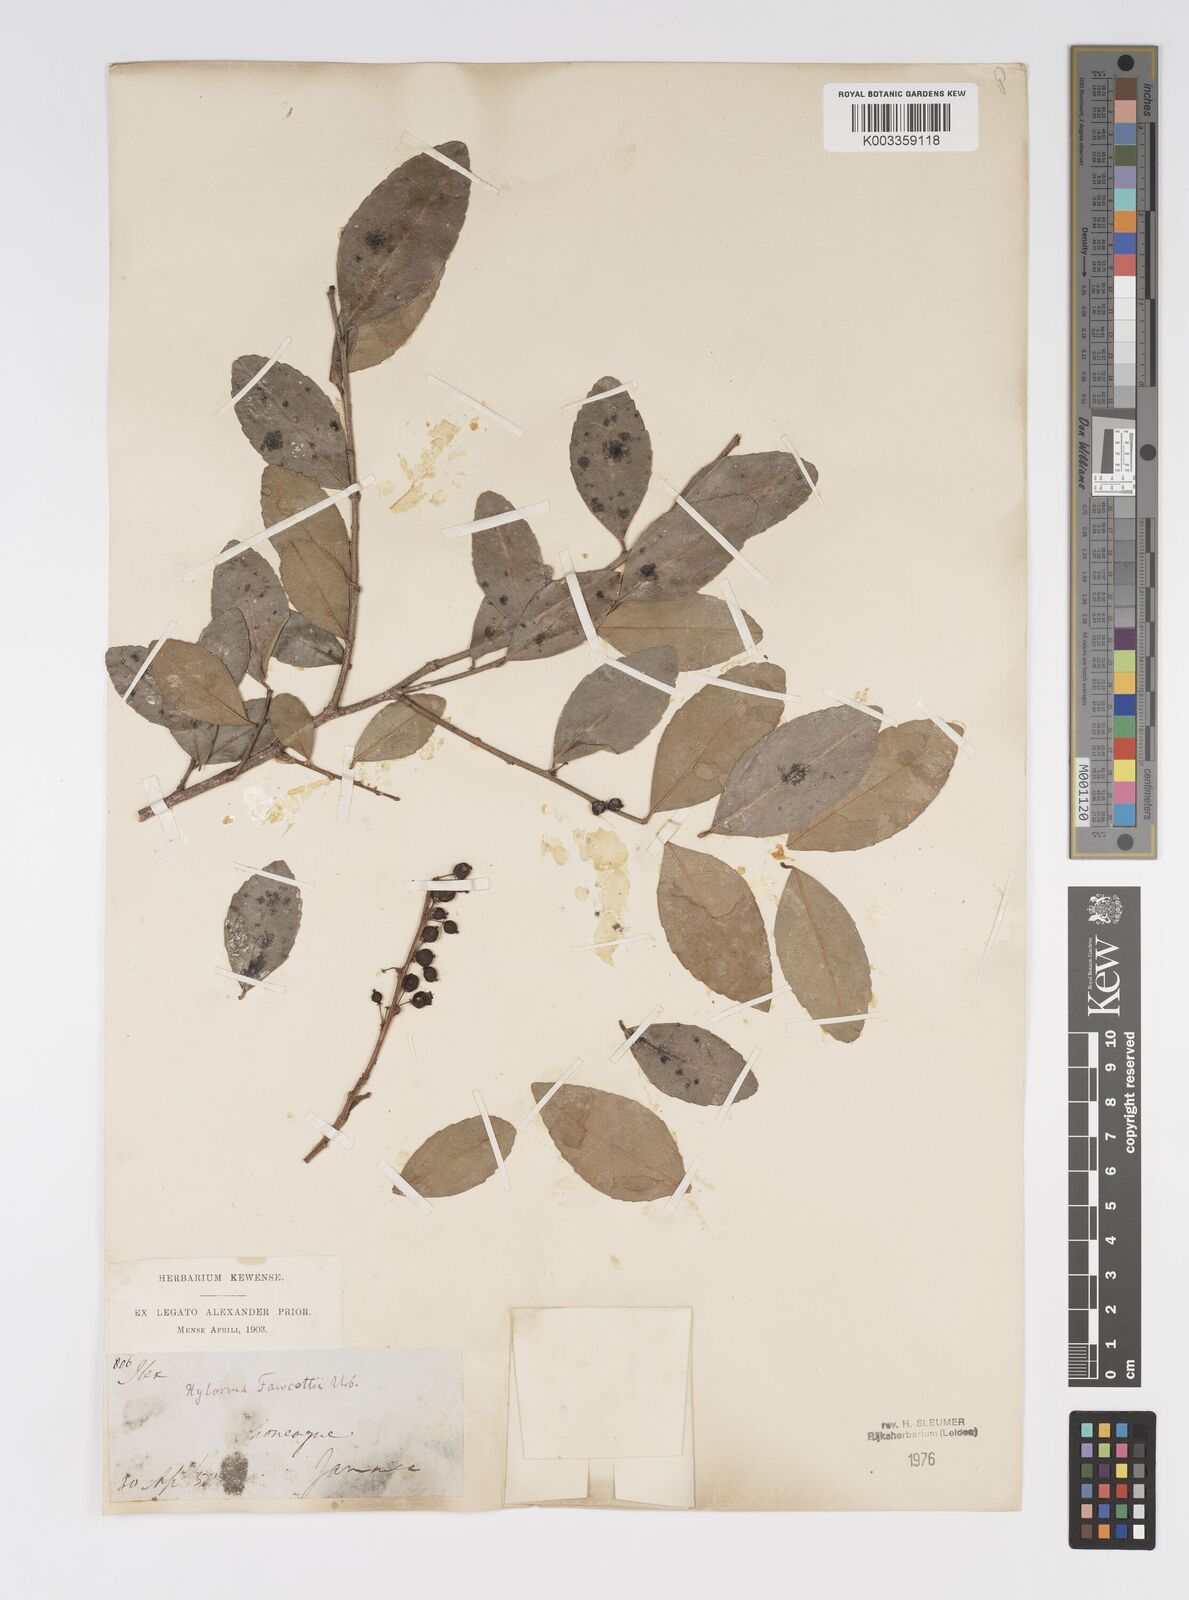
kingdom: Plantae
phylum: Tracheophyta
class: Magnoliopsida
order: Malpighiales
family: Salicaceae
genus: Xylosma
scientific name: Xylosma fawcettii
